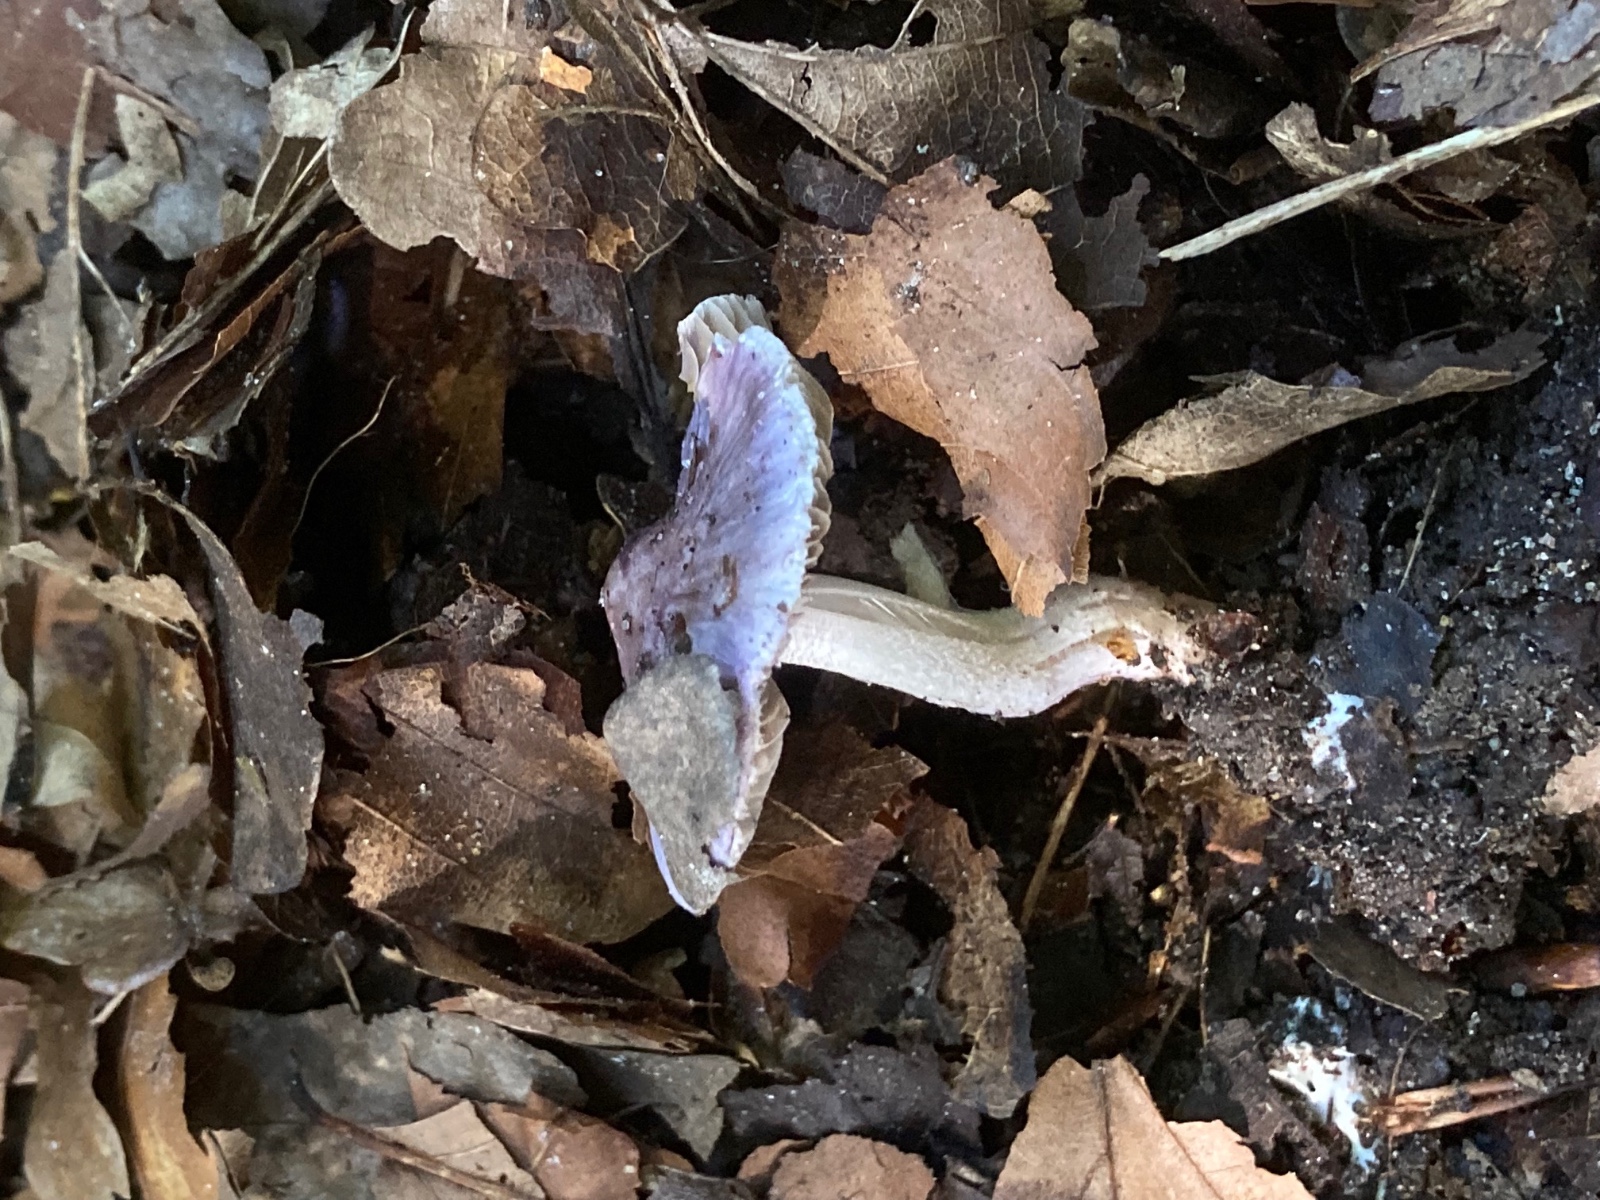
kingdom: Fungi
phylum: Basidiomycota
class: Agaricomycetes
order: Agaricales
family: Inocybaceae
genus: Inocybe
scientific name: Inocybe geophylla
